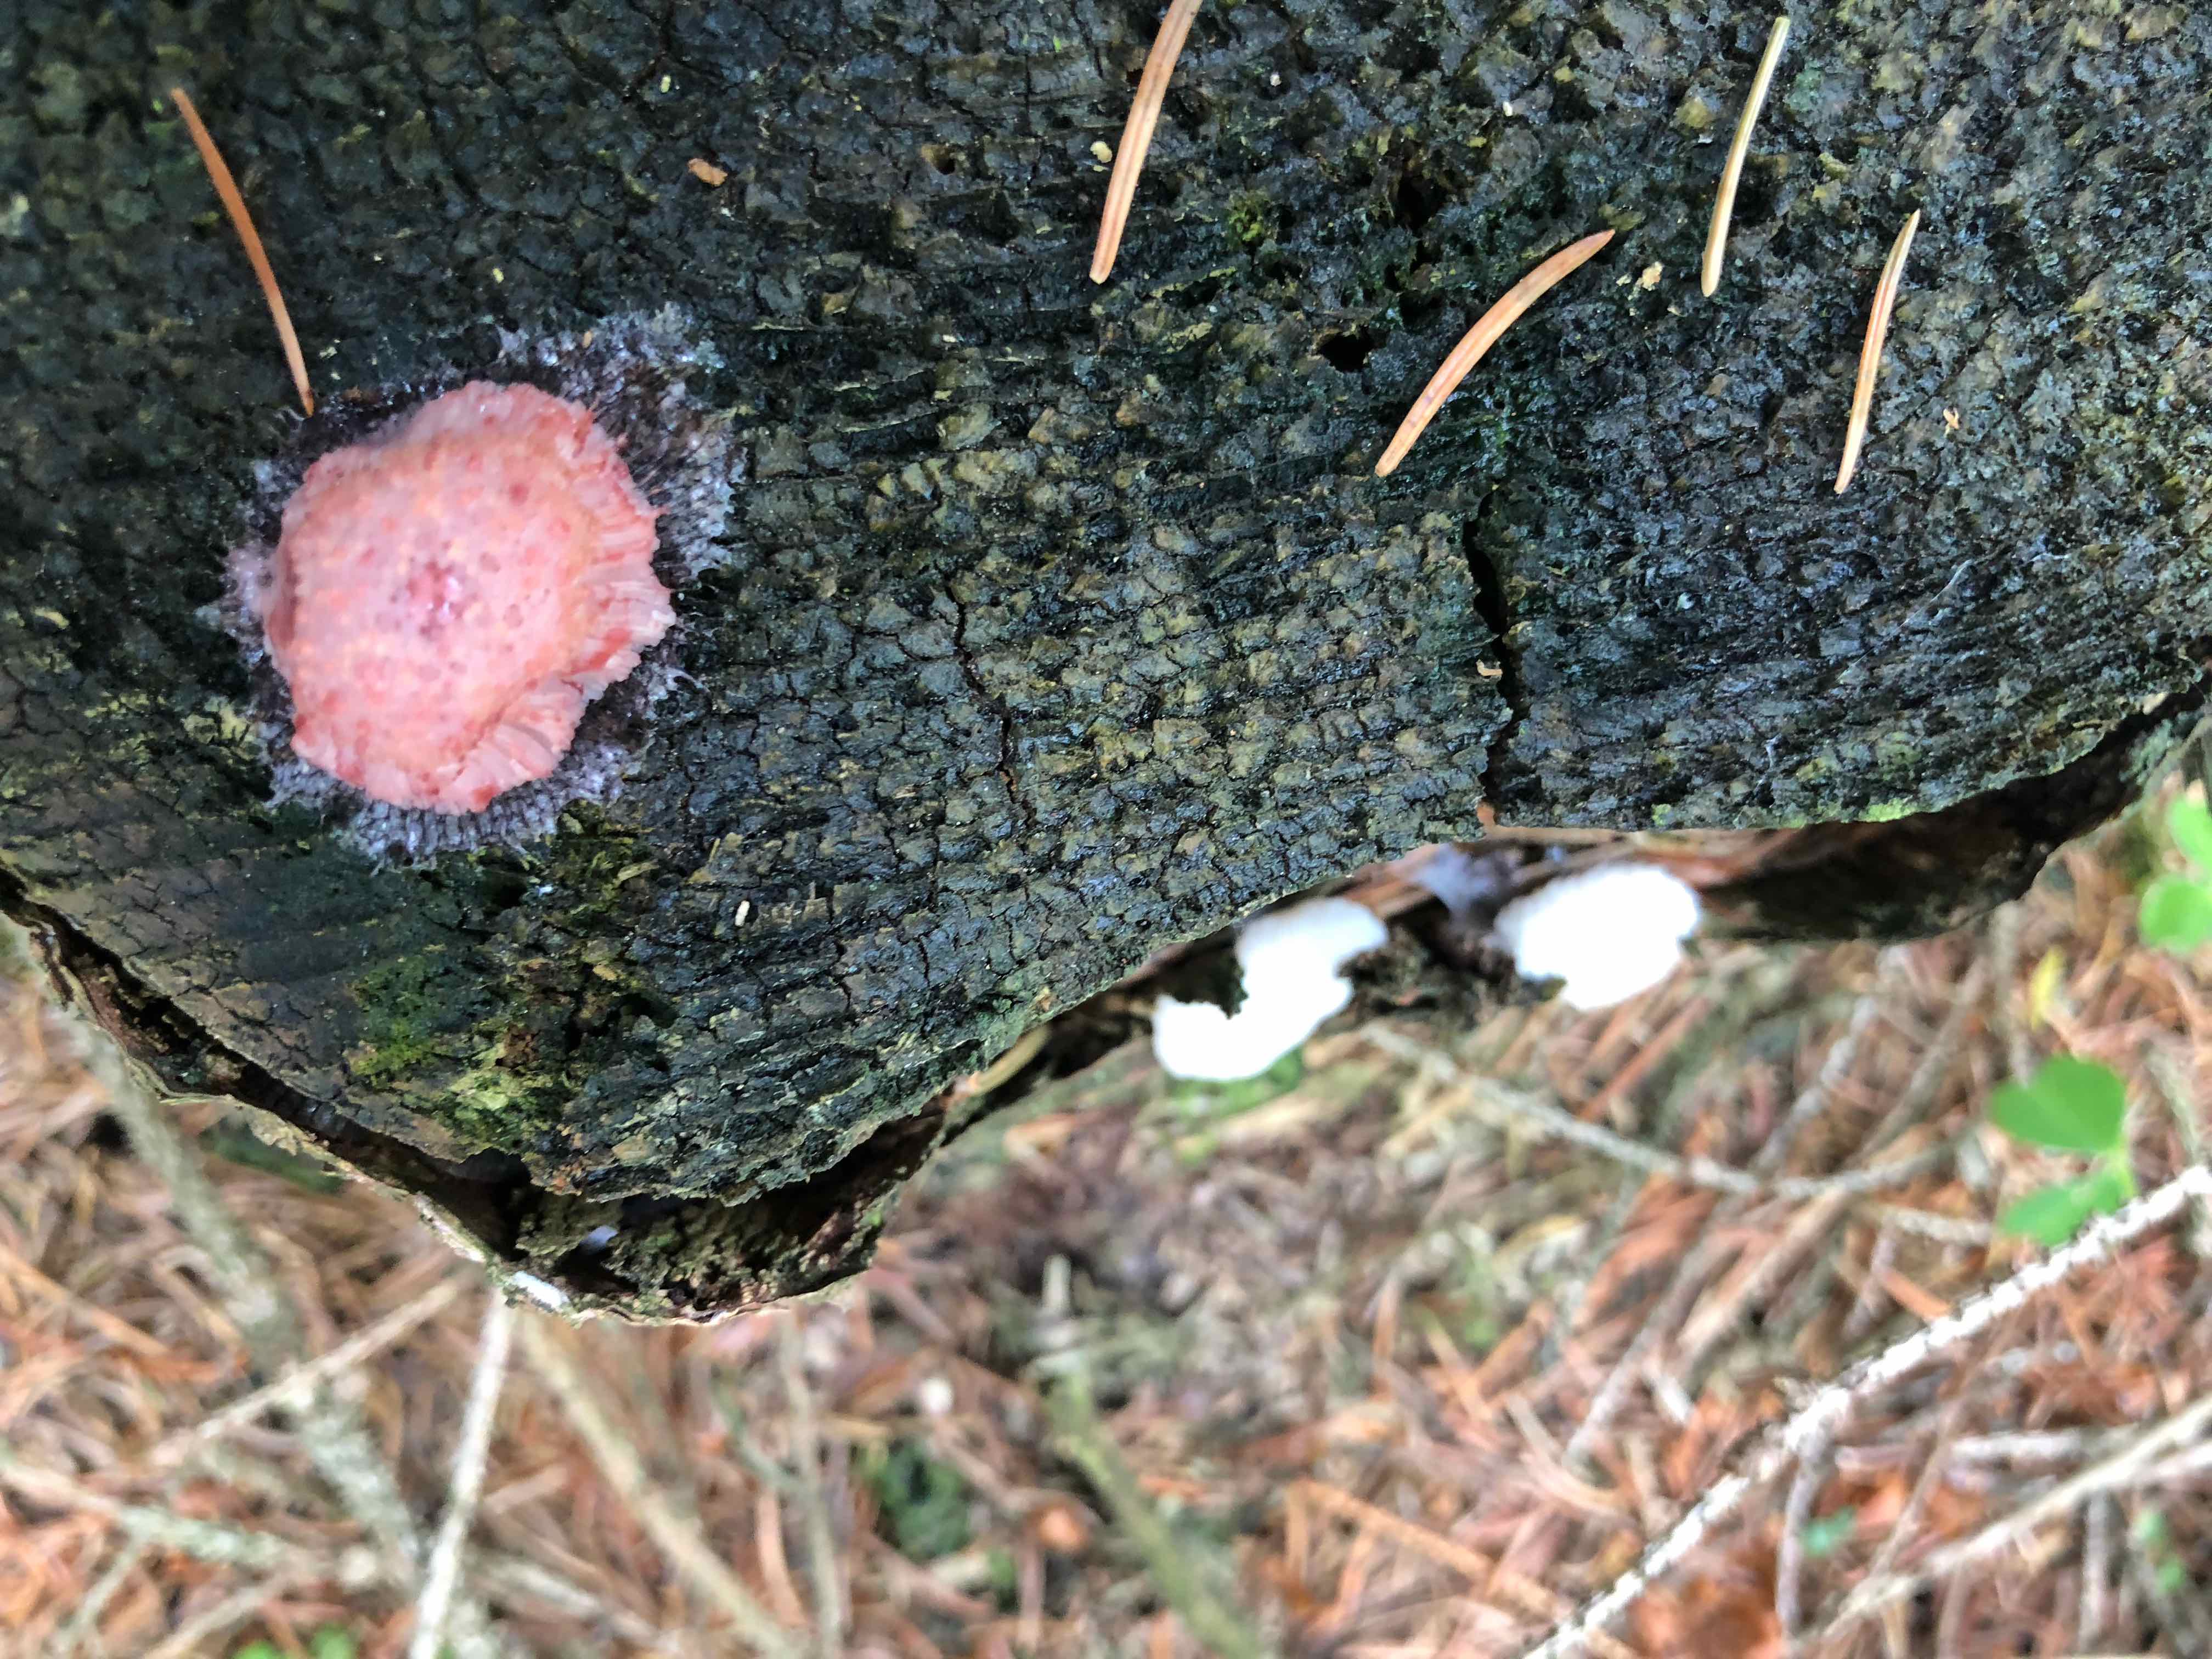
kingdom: Protozoa
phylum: Mycetozoa
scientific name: Mycetozoa
